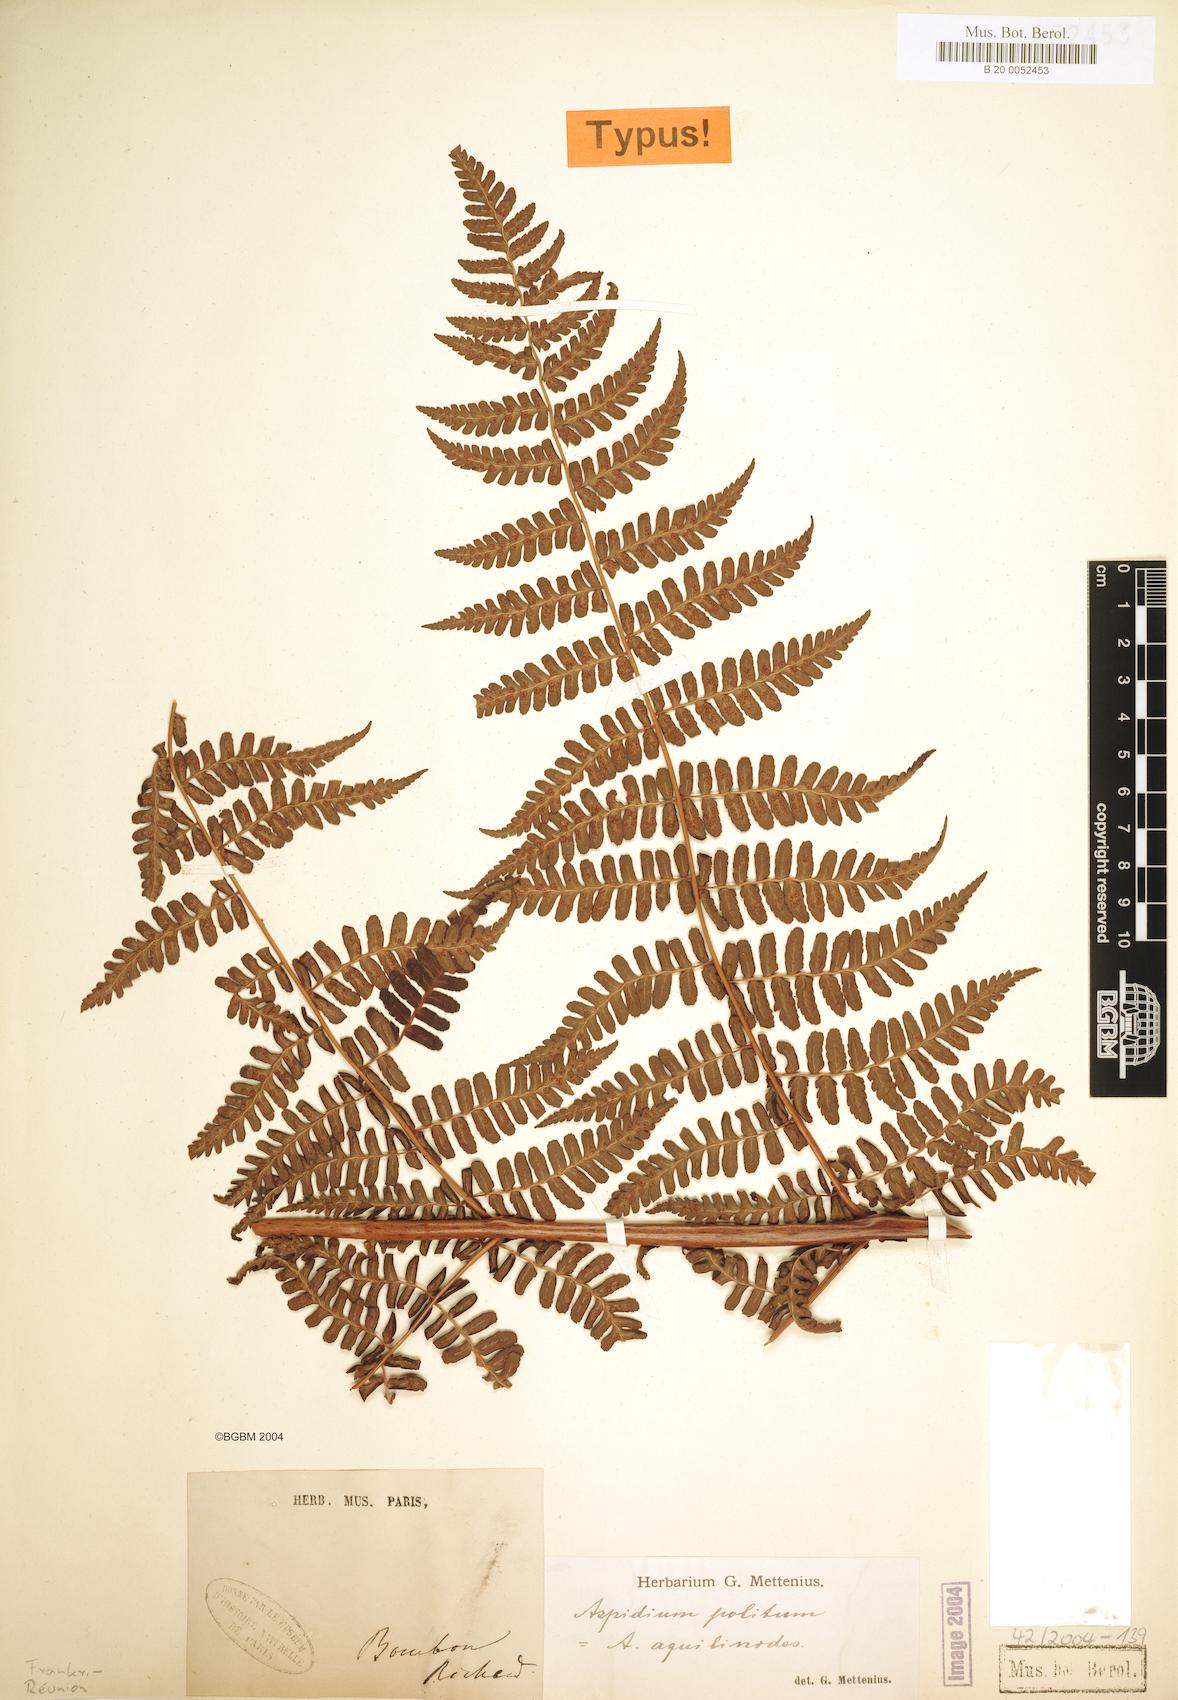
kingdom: Plantae
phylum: Tracheophyta
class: Polypodiopsida
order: Polypodiales
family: Dryopteridaceae
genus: Rumohra
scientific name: Rumohra adiantiformis
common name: Leather fern
